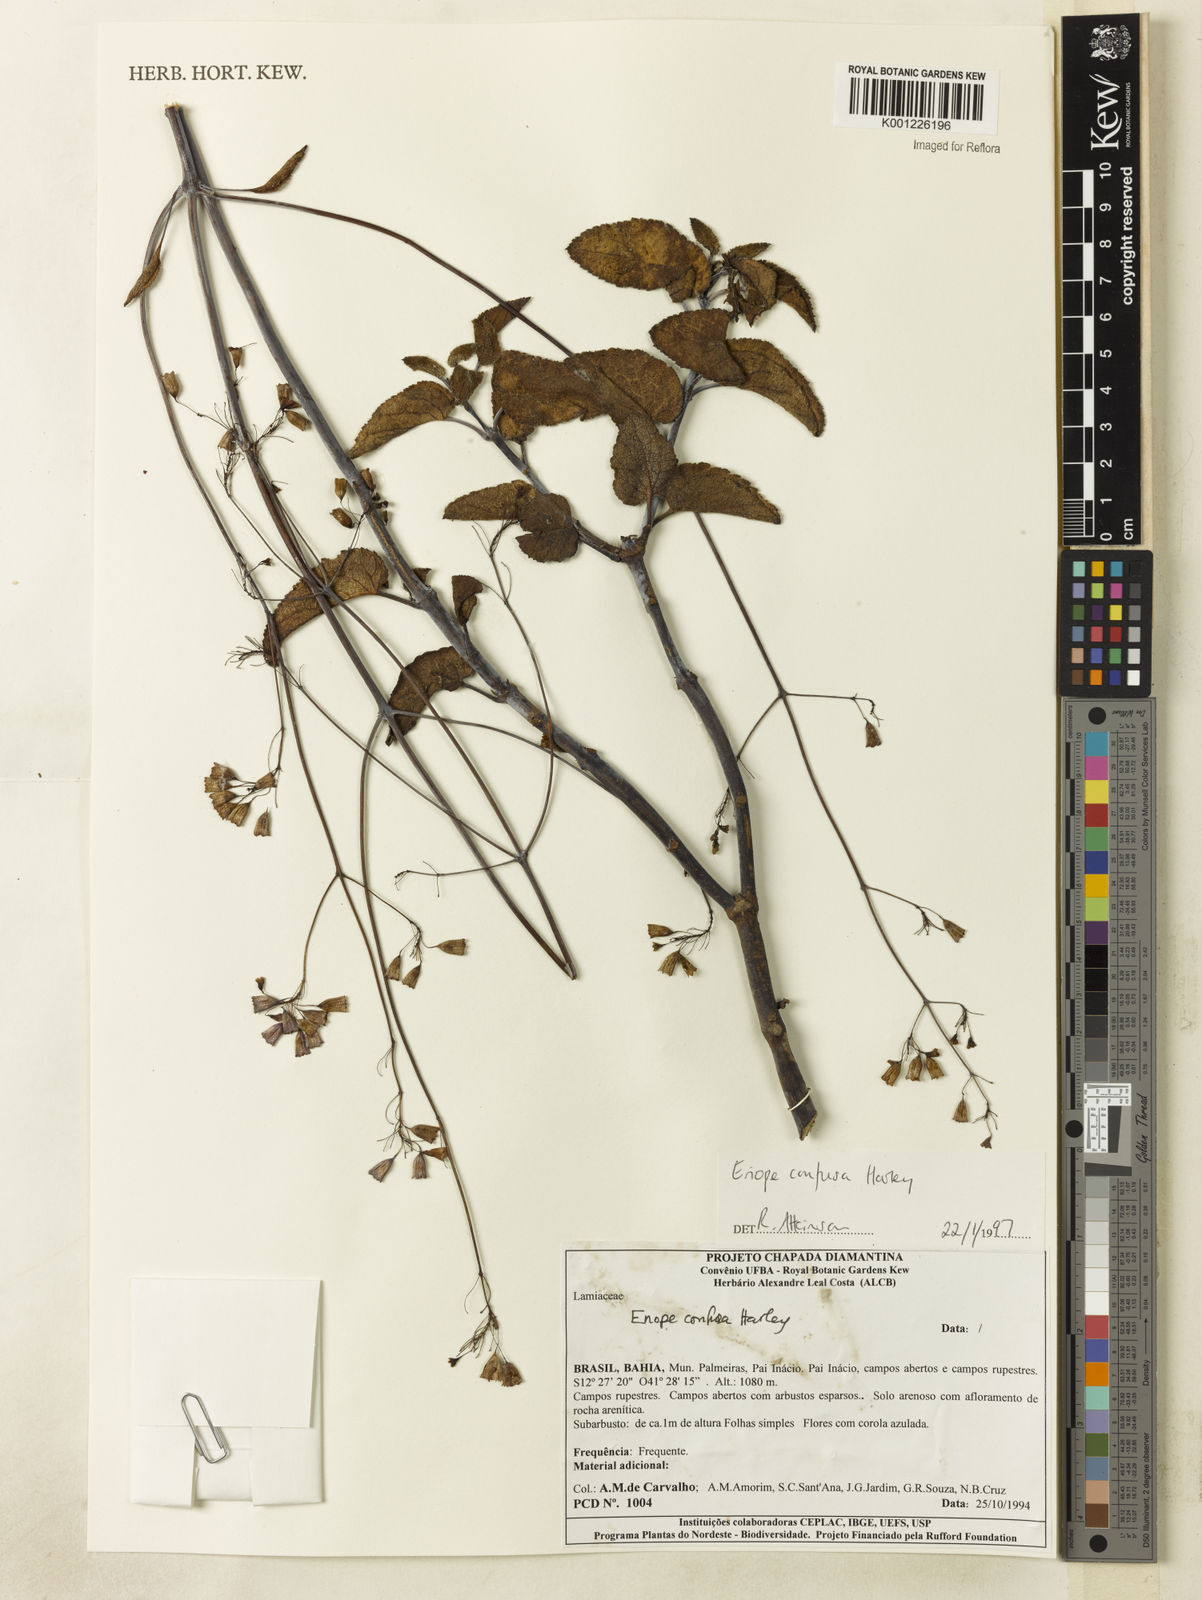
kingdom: Plantae
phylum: Tracheophyta
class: Magnoliopsida
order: Lamiales
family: Lamiaceae
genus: Eriope
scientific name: Eriope confusa
